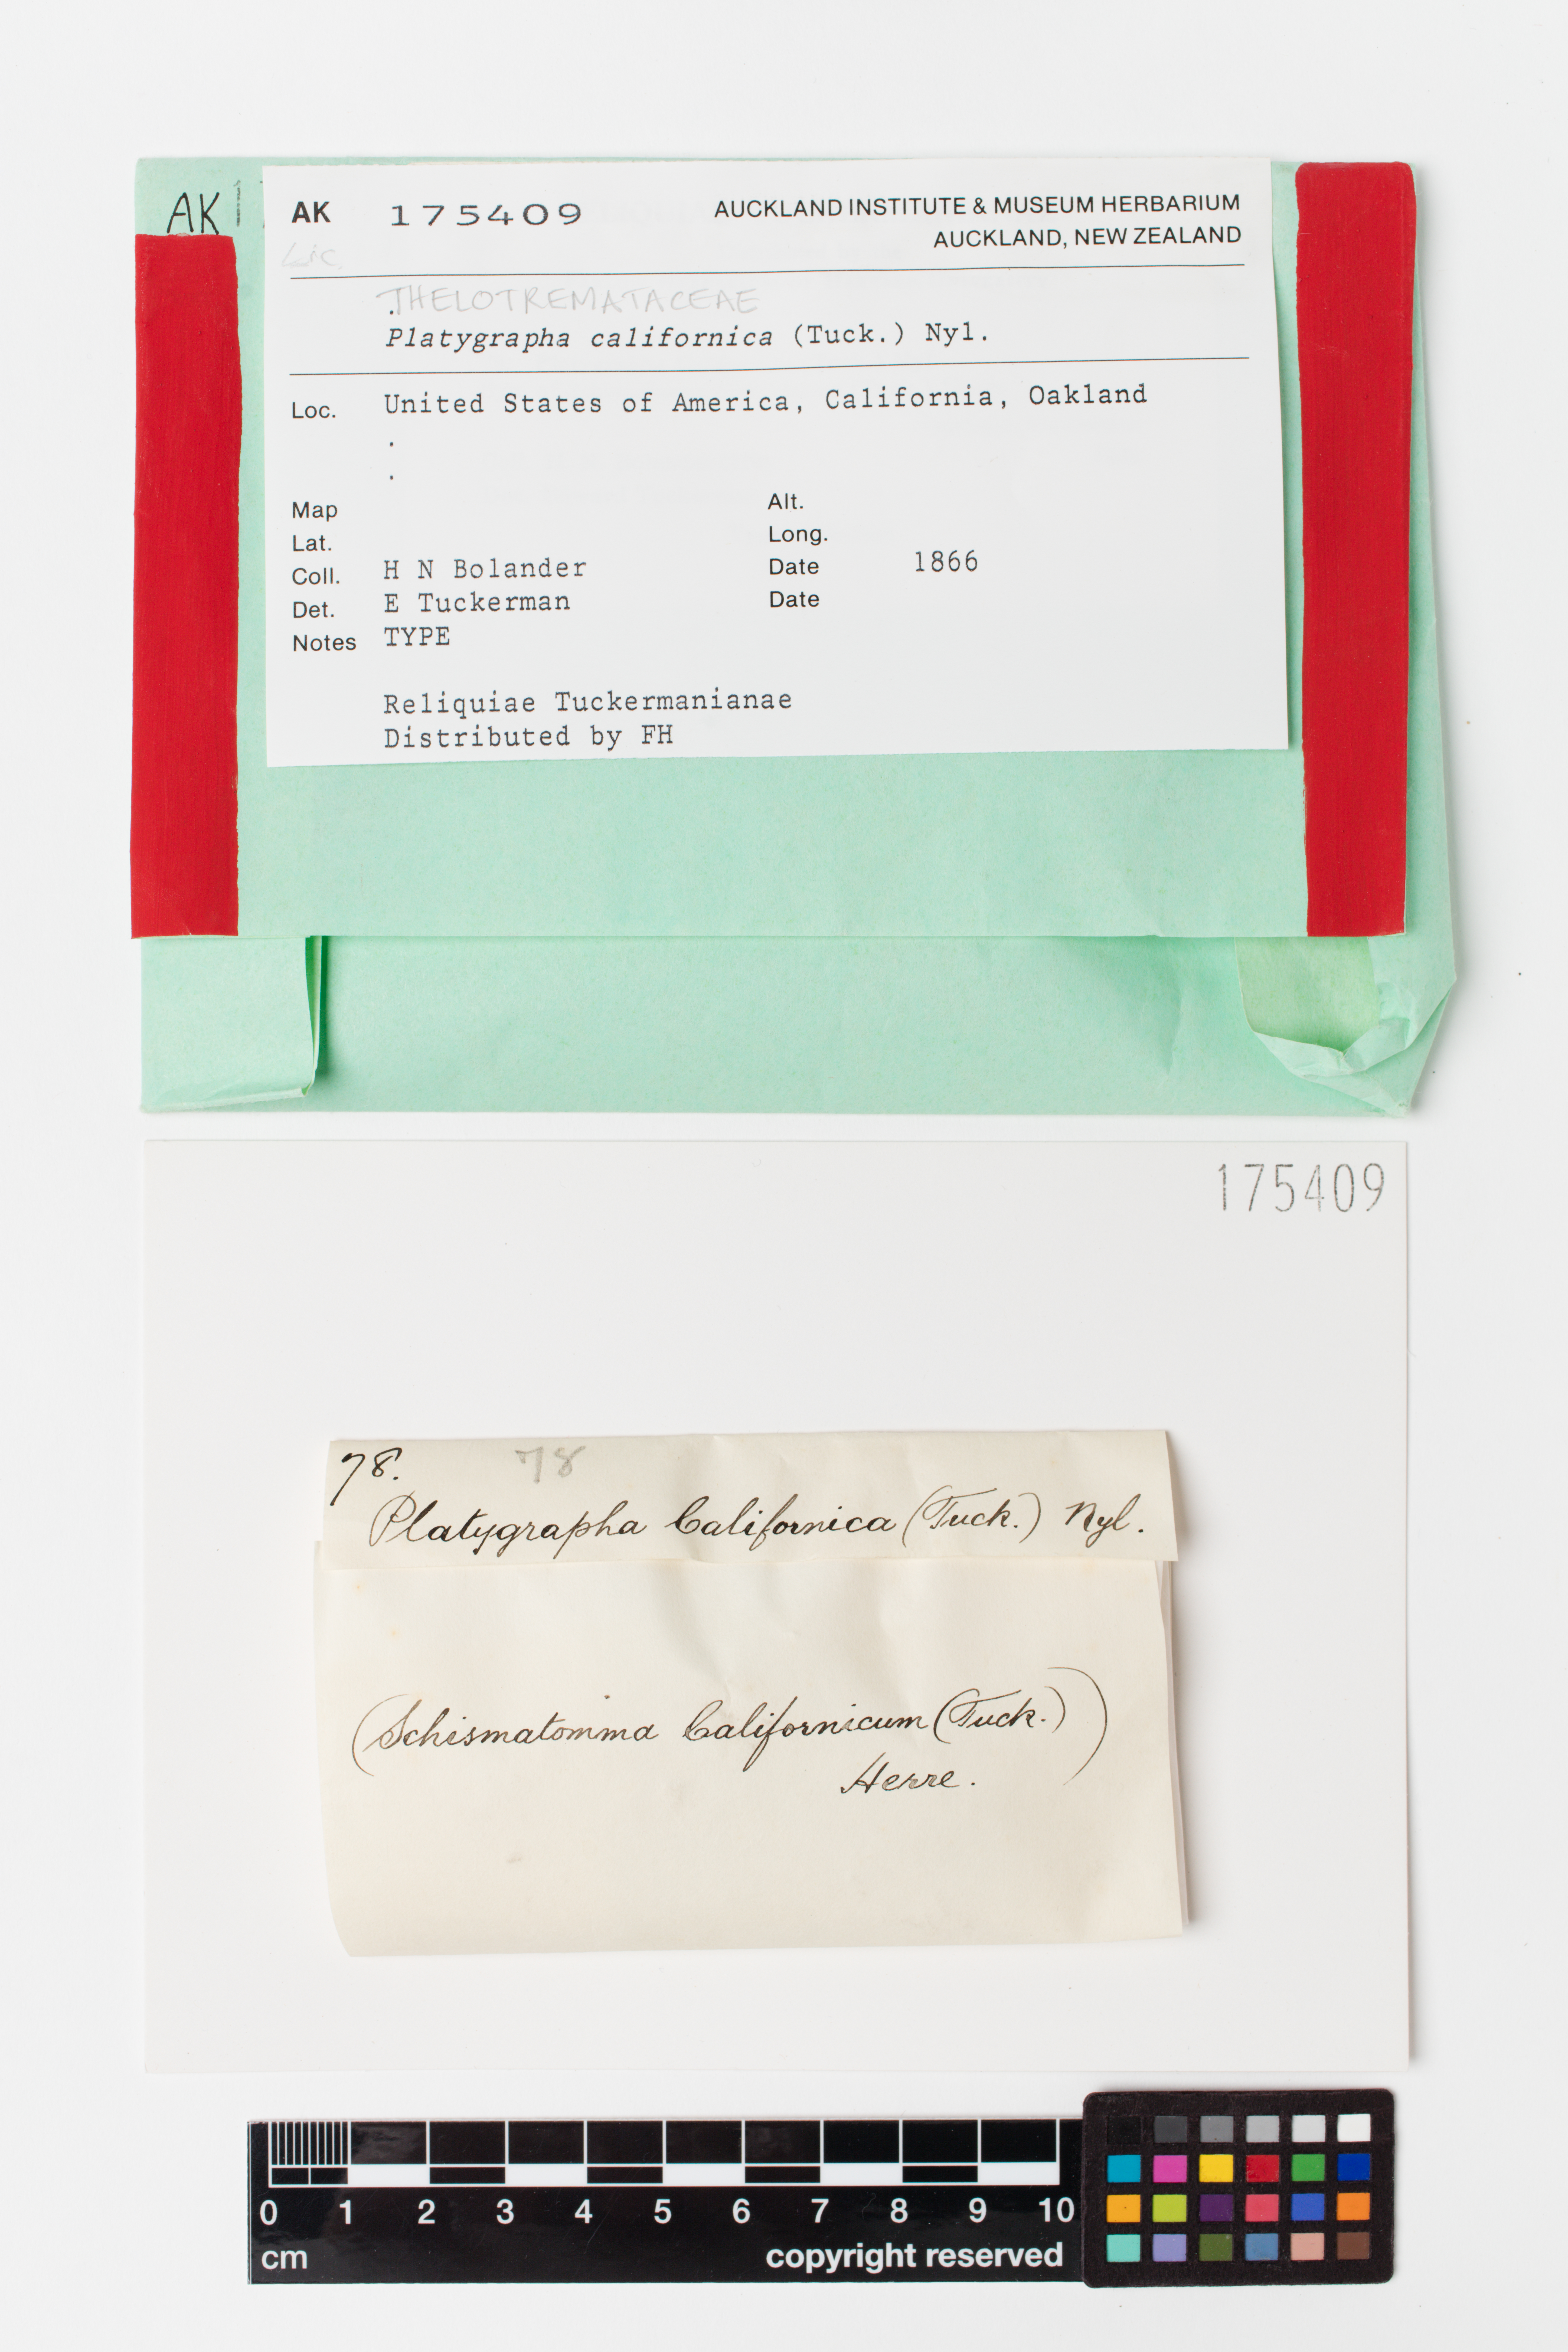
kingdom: Fungi
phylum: Ascomycota
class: Arthoniomycetes
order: Arthoniales
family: Roccellaceae
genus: Sigridea
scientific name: Sigridea californica
